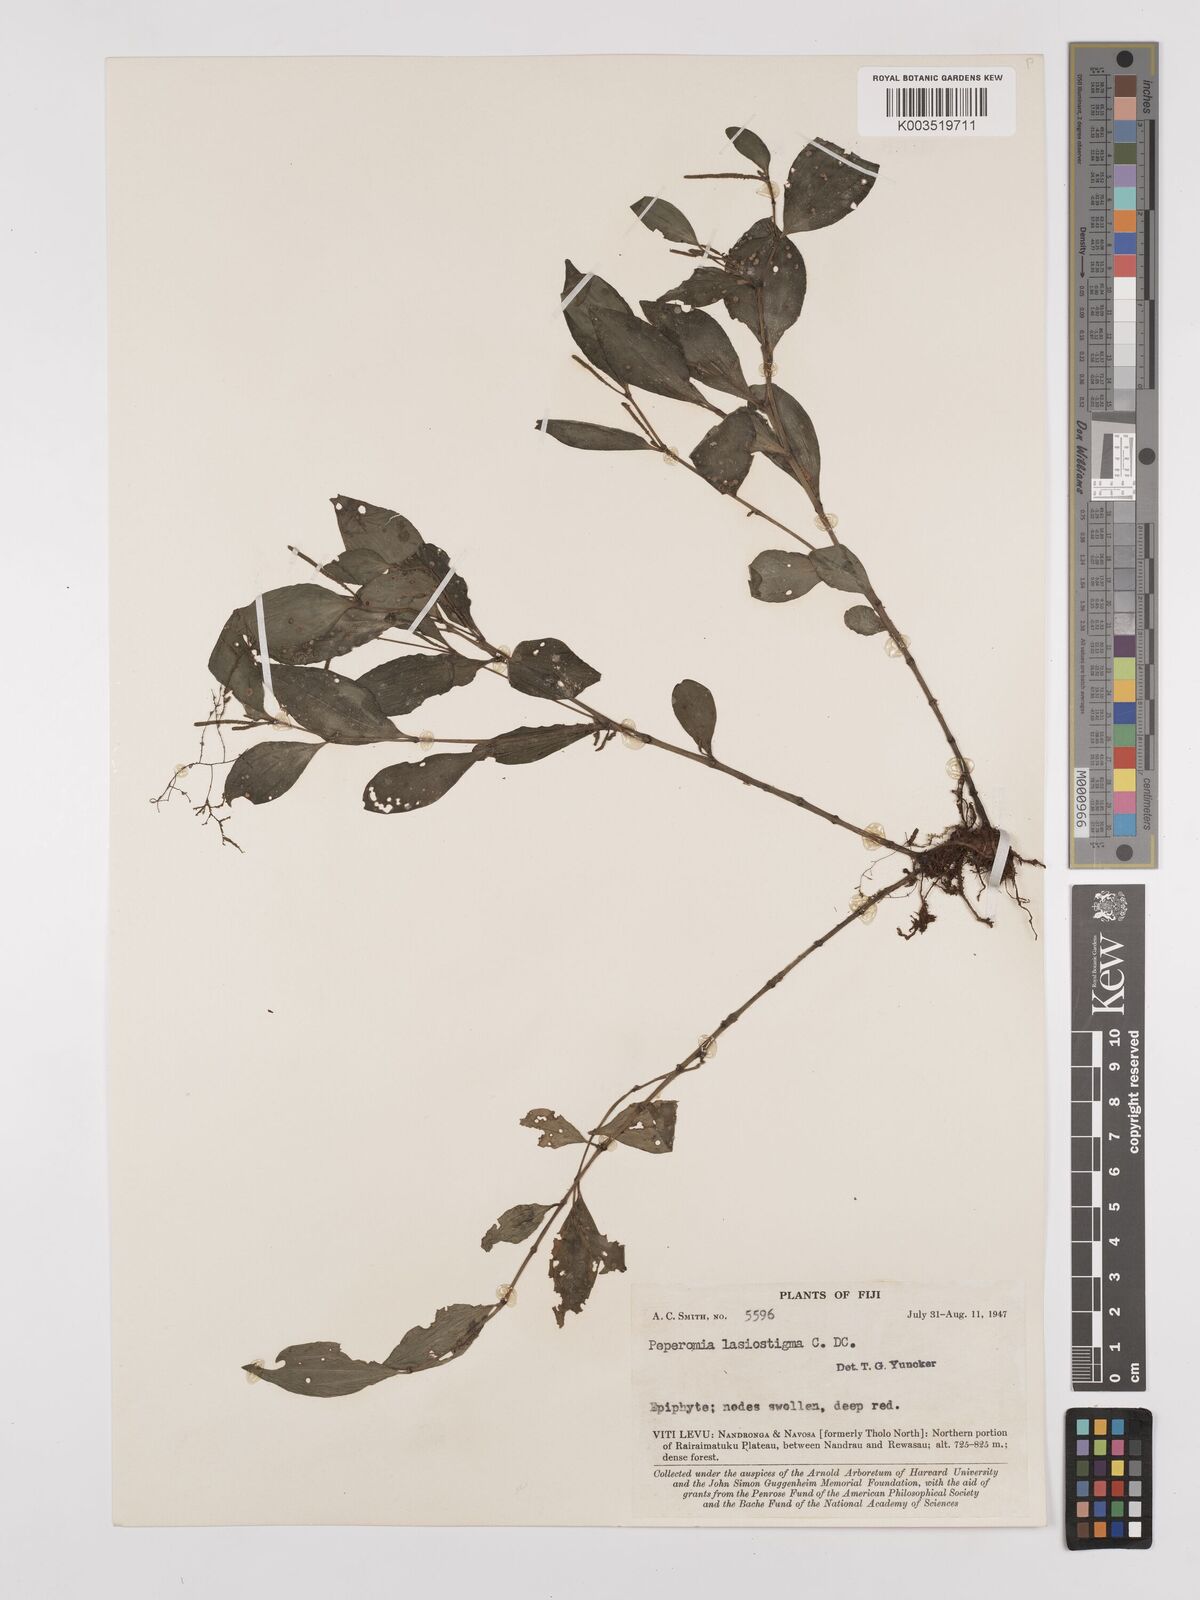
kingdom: Plantae
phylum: Tracheophyta
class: Magnoliopsida
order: Piperales
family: Piperaceae
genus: Peperomia
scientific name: Peperomia lasiostigma
